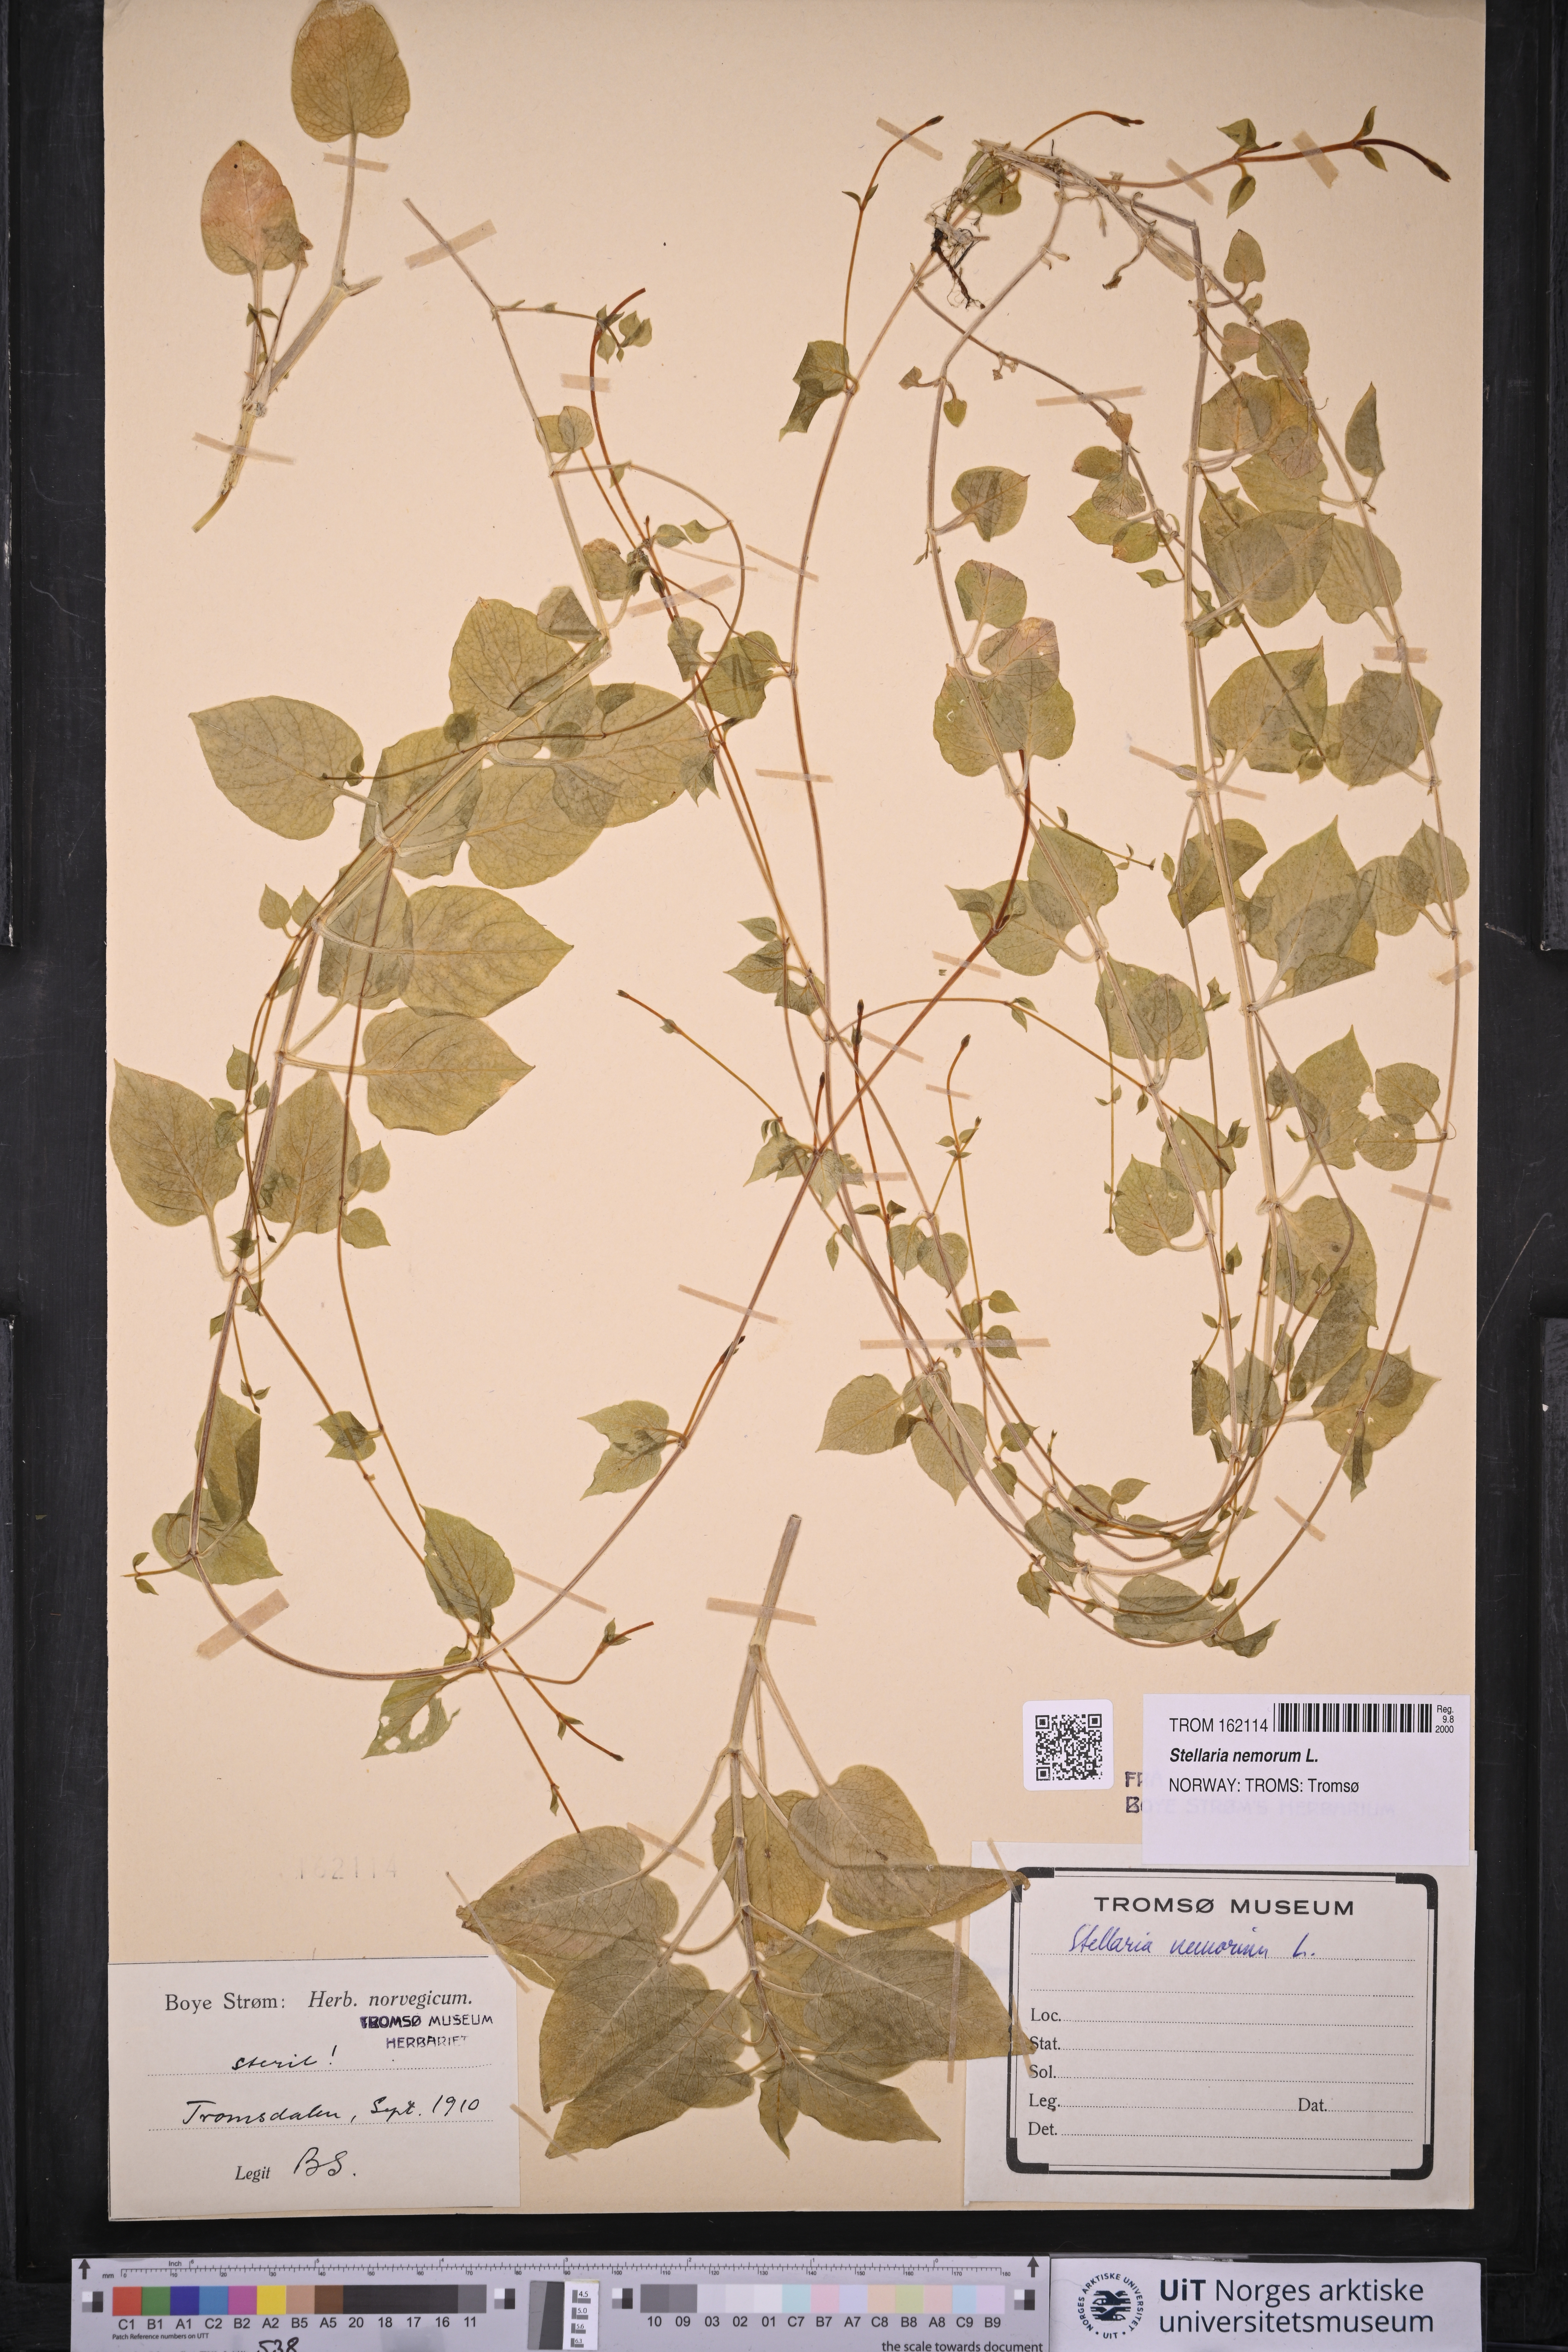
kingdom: Plantae
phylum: Tracheophyta
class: Magnoliopsida
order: Caryophyllales
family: Caryophyllaceae
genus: Stellaria
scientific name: Stellaria nemorum
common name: Wood stitchwort
